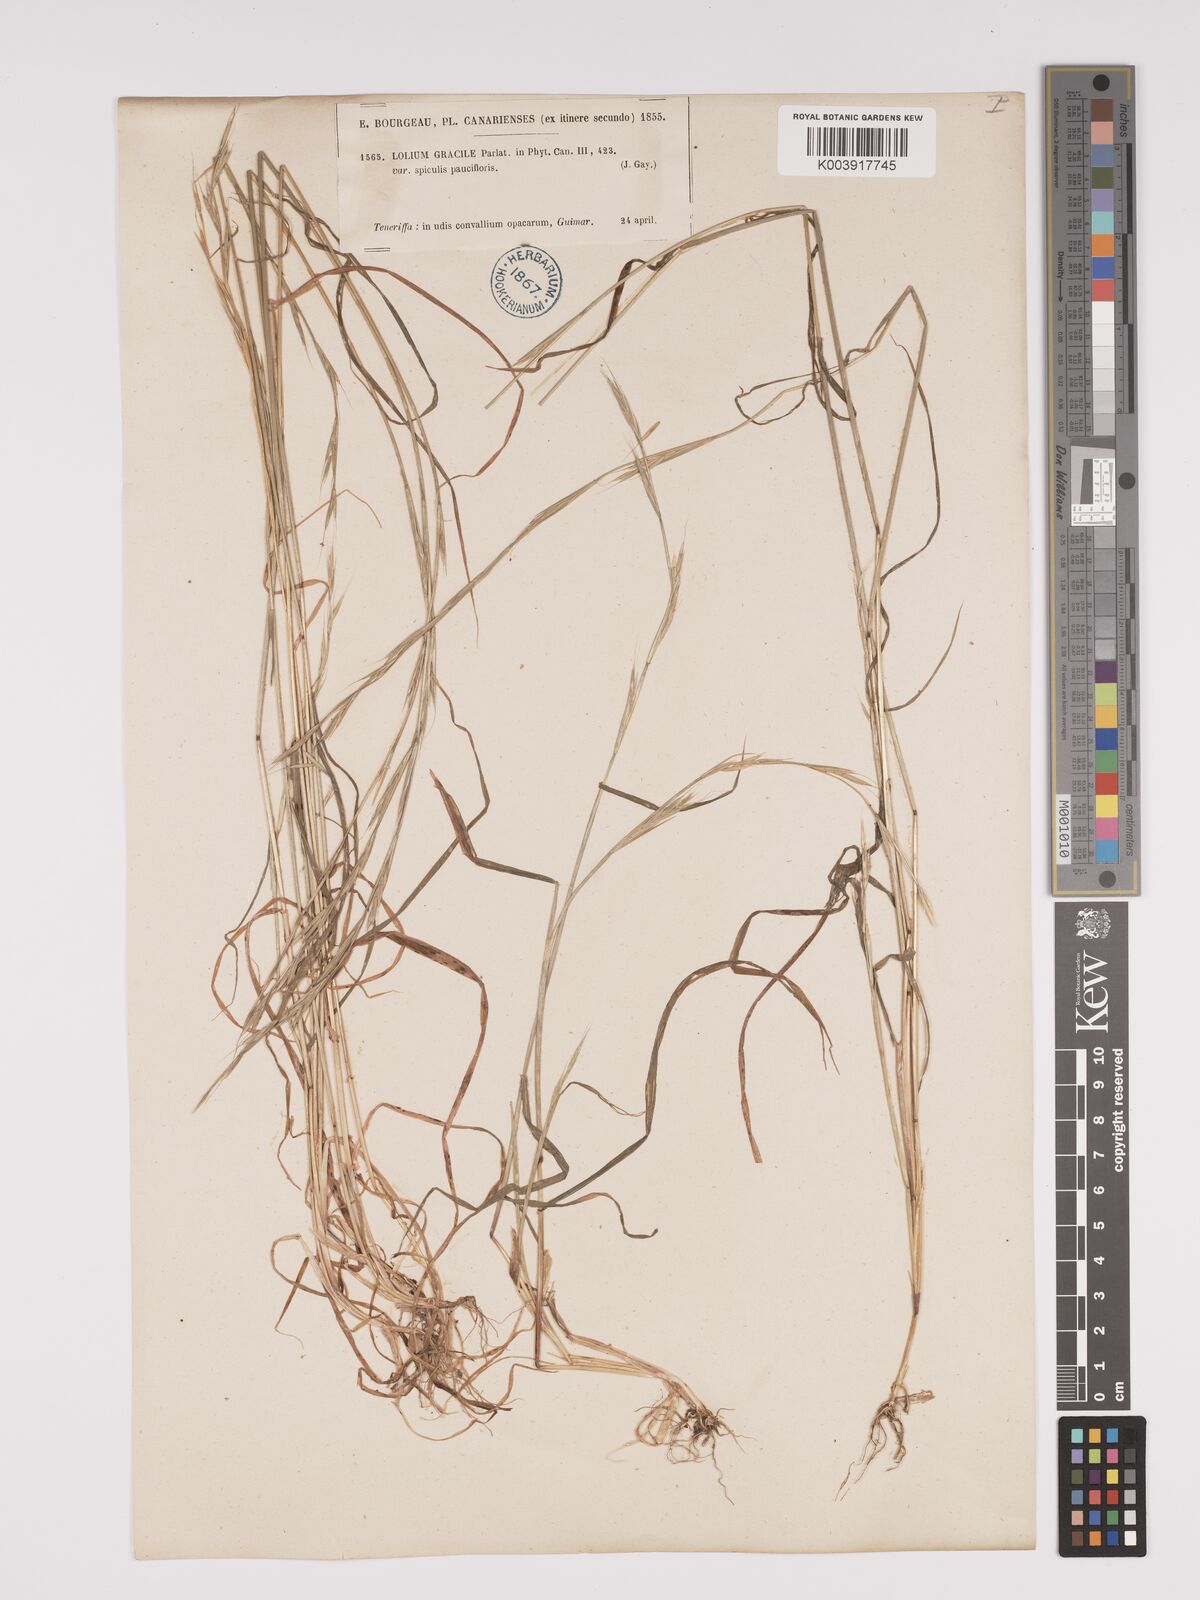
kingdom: Plantae
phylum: Tracheophyta
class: Liliopsida
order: Poales
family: Poaceae
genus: Lolium
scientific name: Lolium canariense
